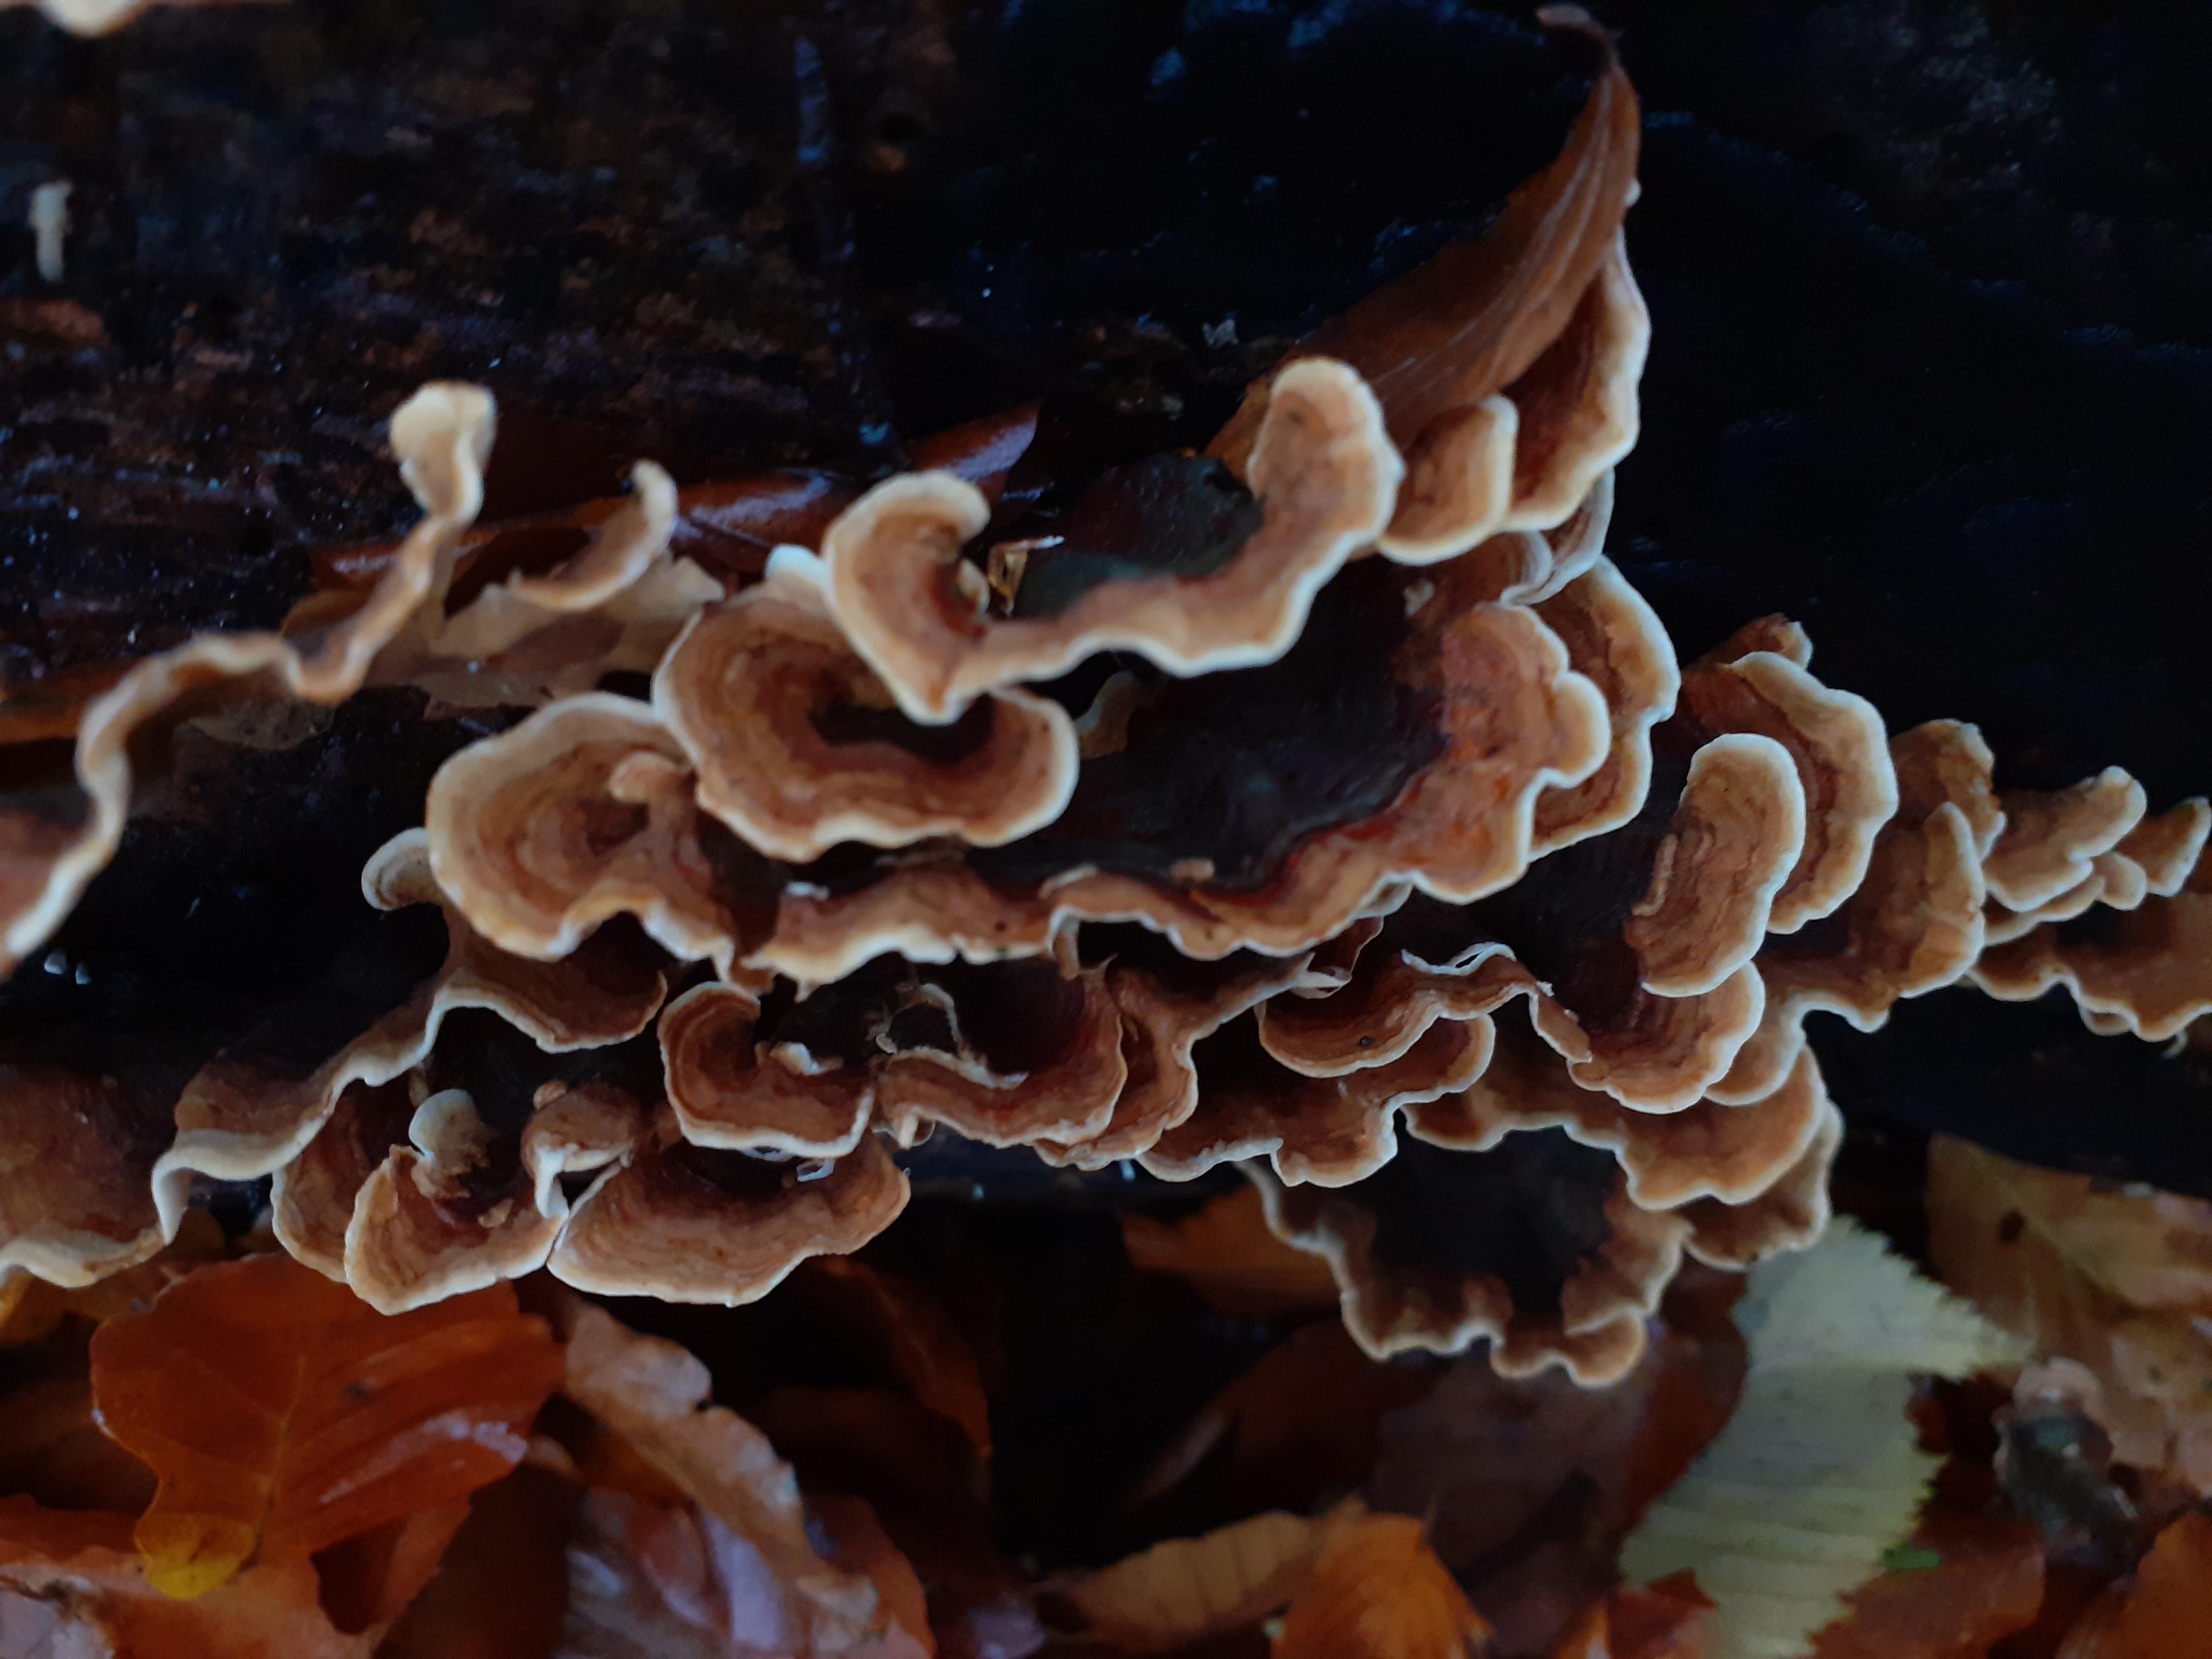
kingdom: Fungi
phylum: Basidiomycota
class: Agaricomycetes
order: Russulales
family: Stereaceae
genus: Stereum
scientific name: Stereum subtomentosum
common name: smuk lædersvamp
